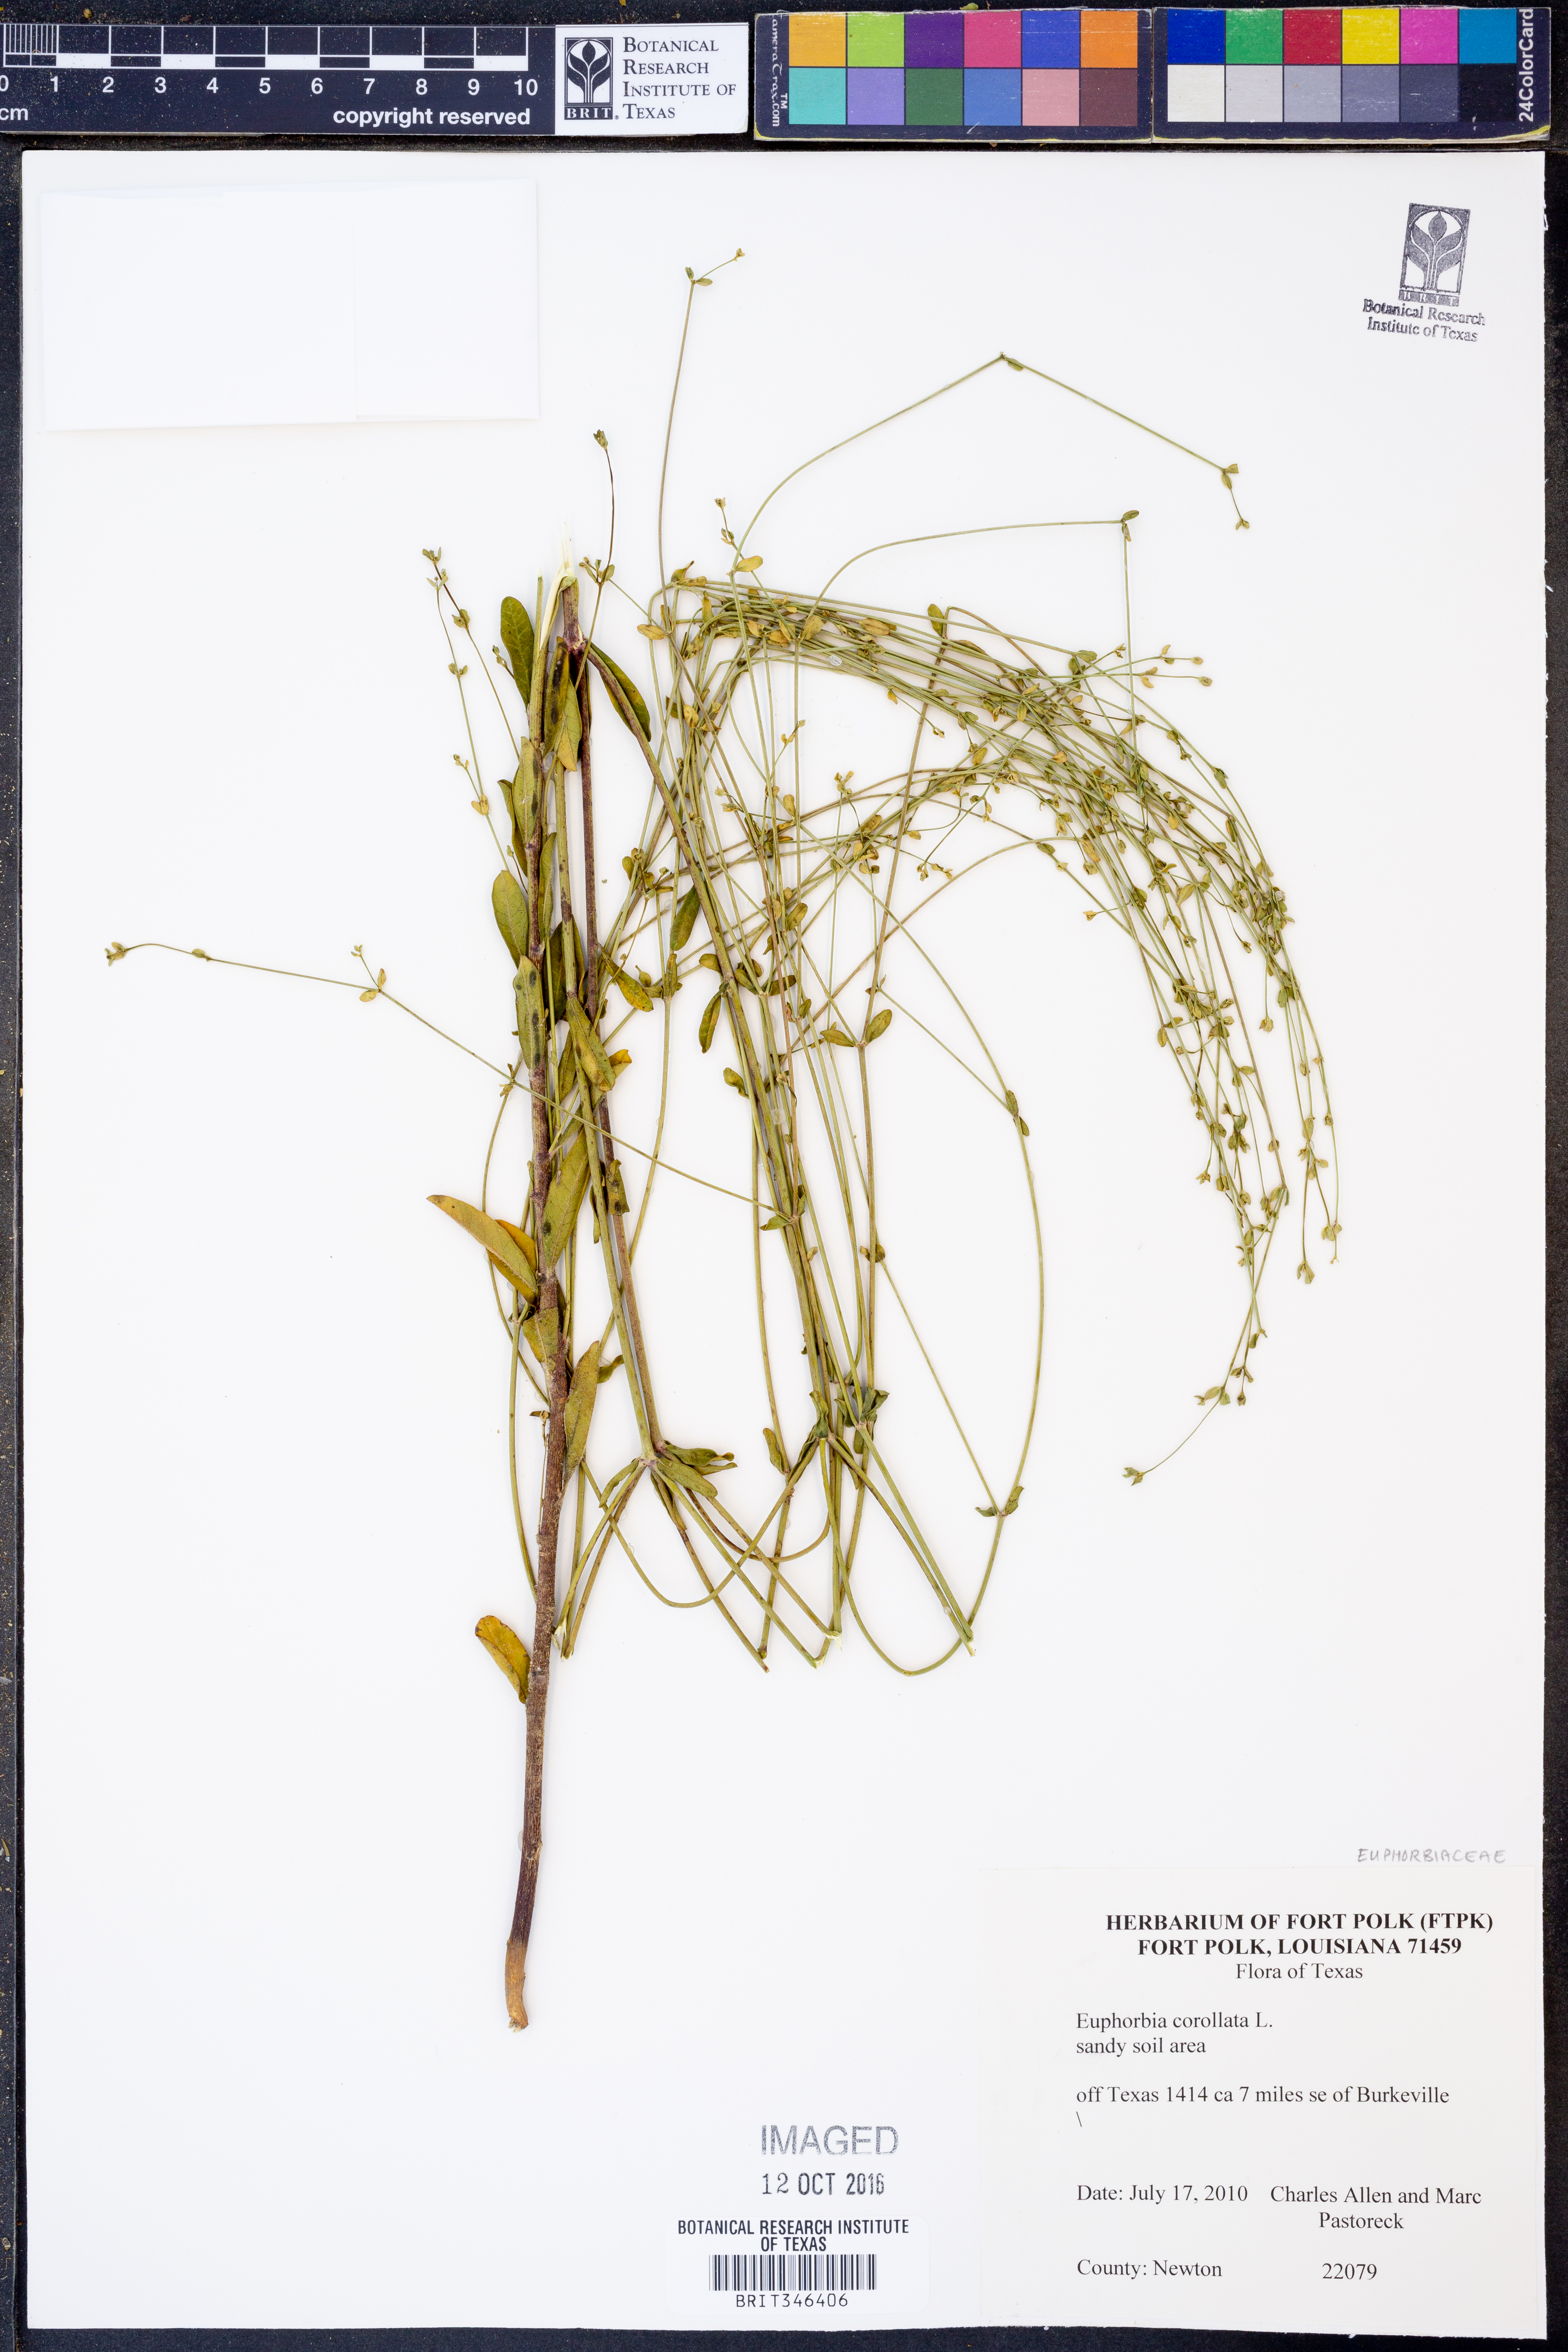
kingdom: Plantae
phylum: Tracheophyta
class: Magnoliopsida
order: Malpighiales
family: Euphorbiaceae
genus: Euphorbia
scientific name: Euphorbia corollata
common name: Flowering spurge
